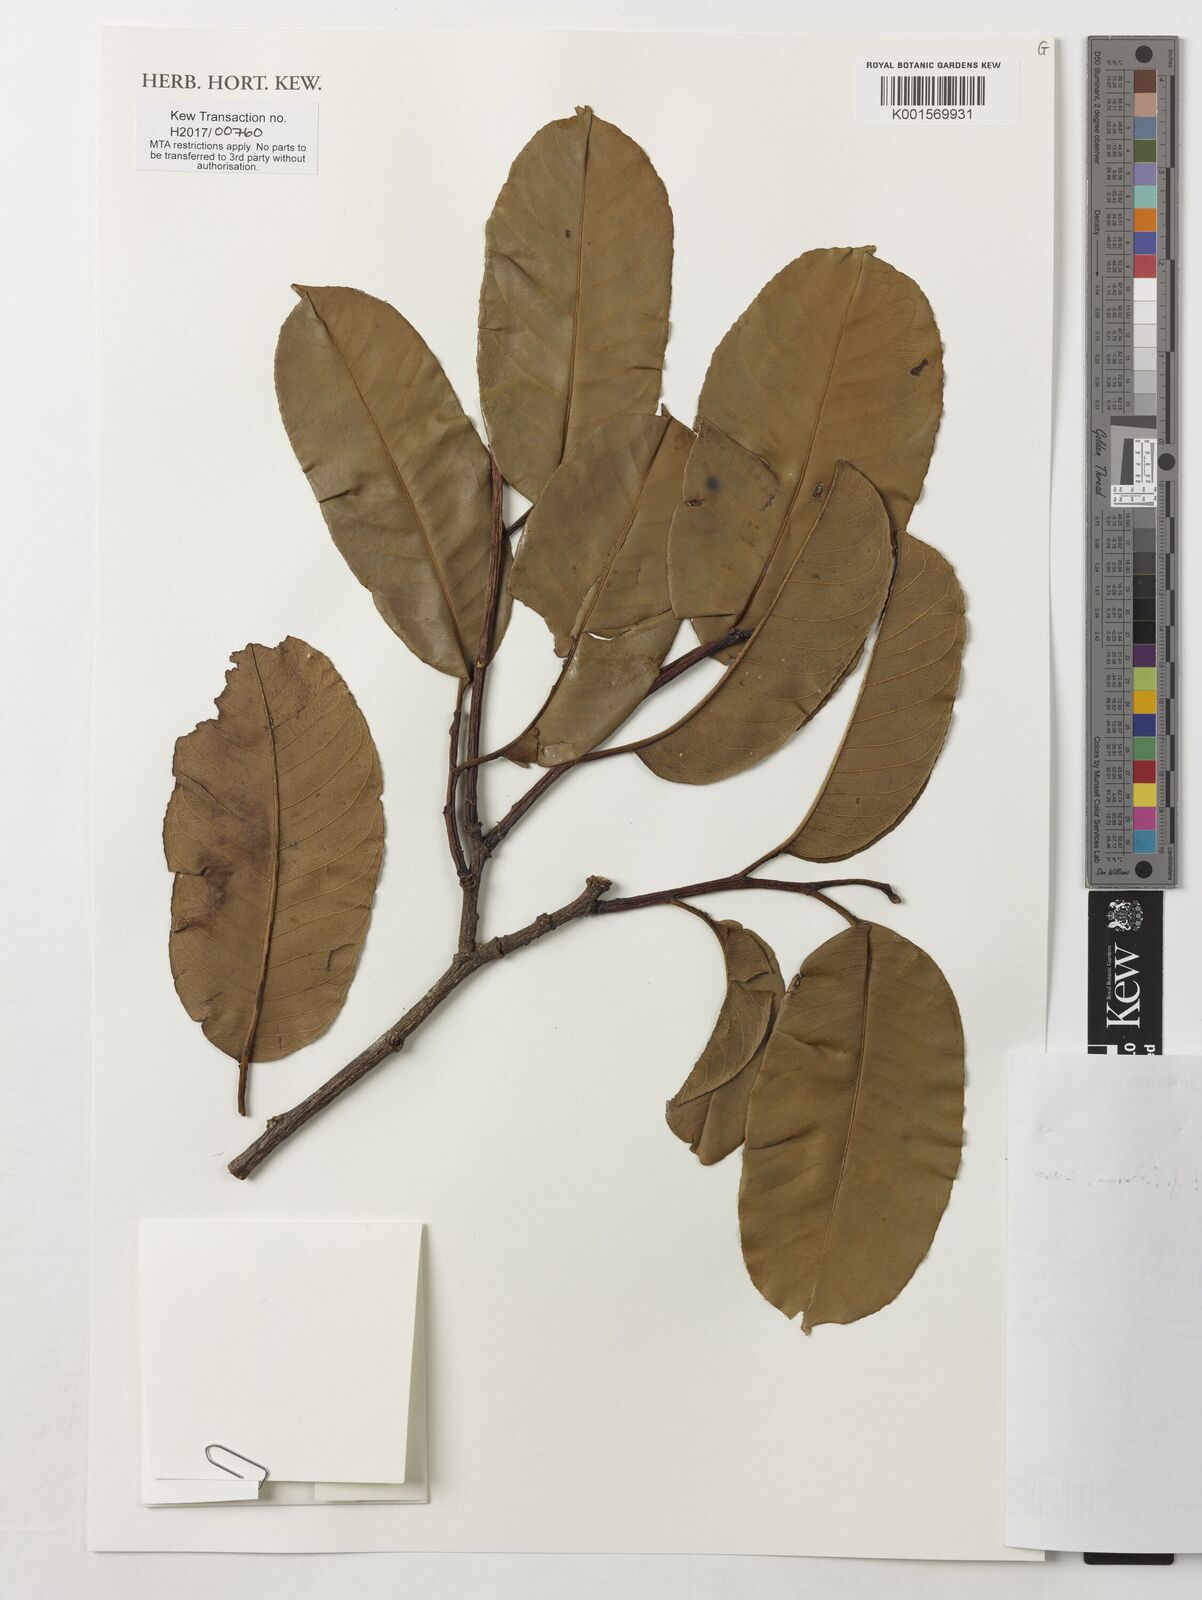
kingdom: Plantae
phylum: Tracheophyta
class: Magnoliopsida
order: Ericales
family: Lecythidaceae
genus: Lecythis
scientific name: Lecythis lurida
